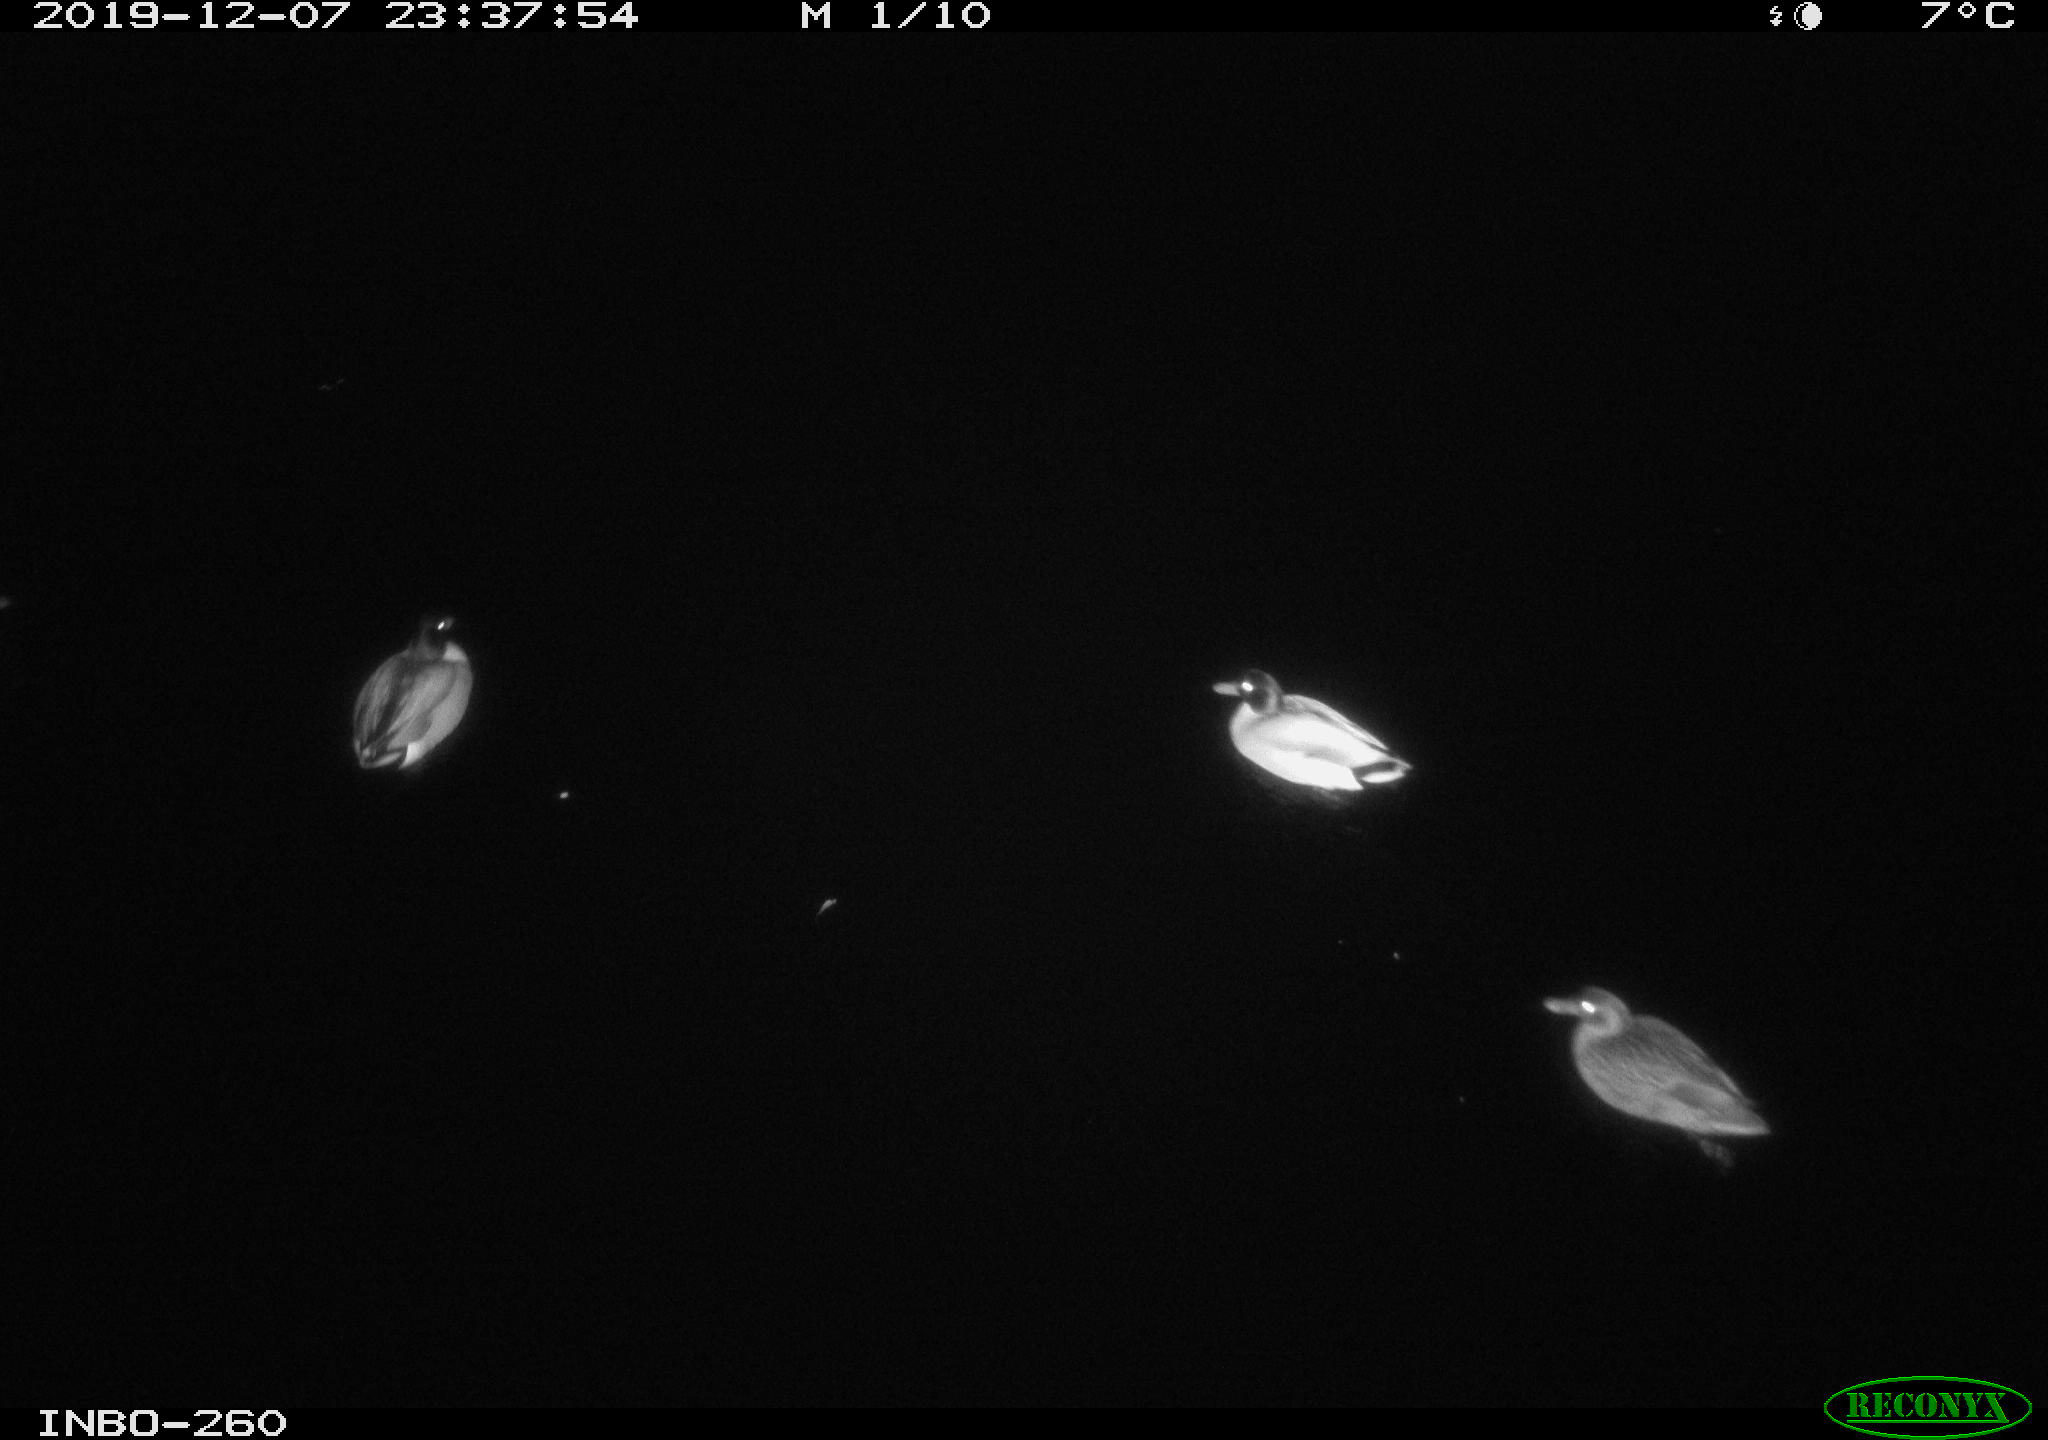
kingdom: Animalia
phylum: Chordata
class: Aves
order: Anseriformes
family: Anatidae
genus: Anas
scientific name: Anas platyrhynchos
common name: Mallard
